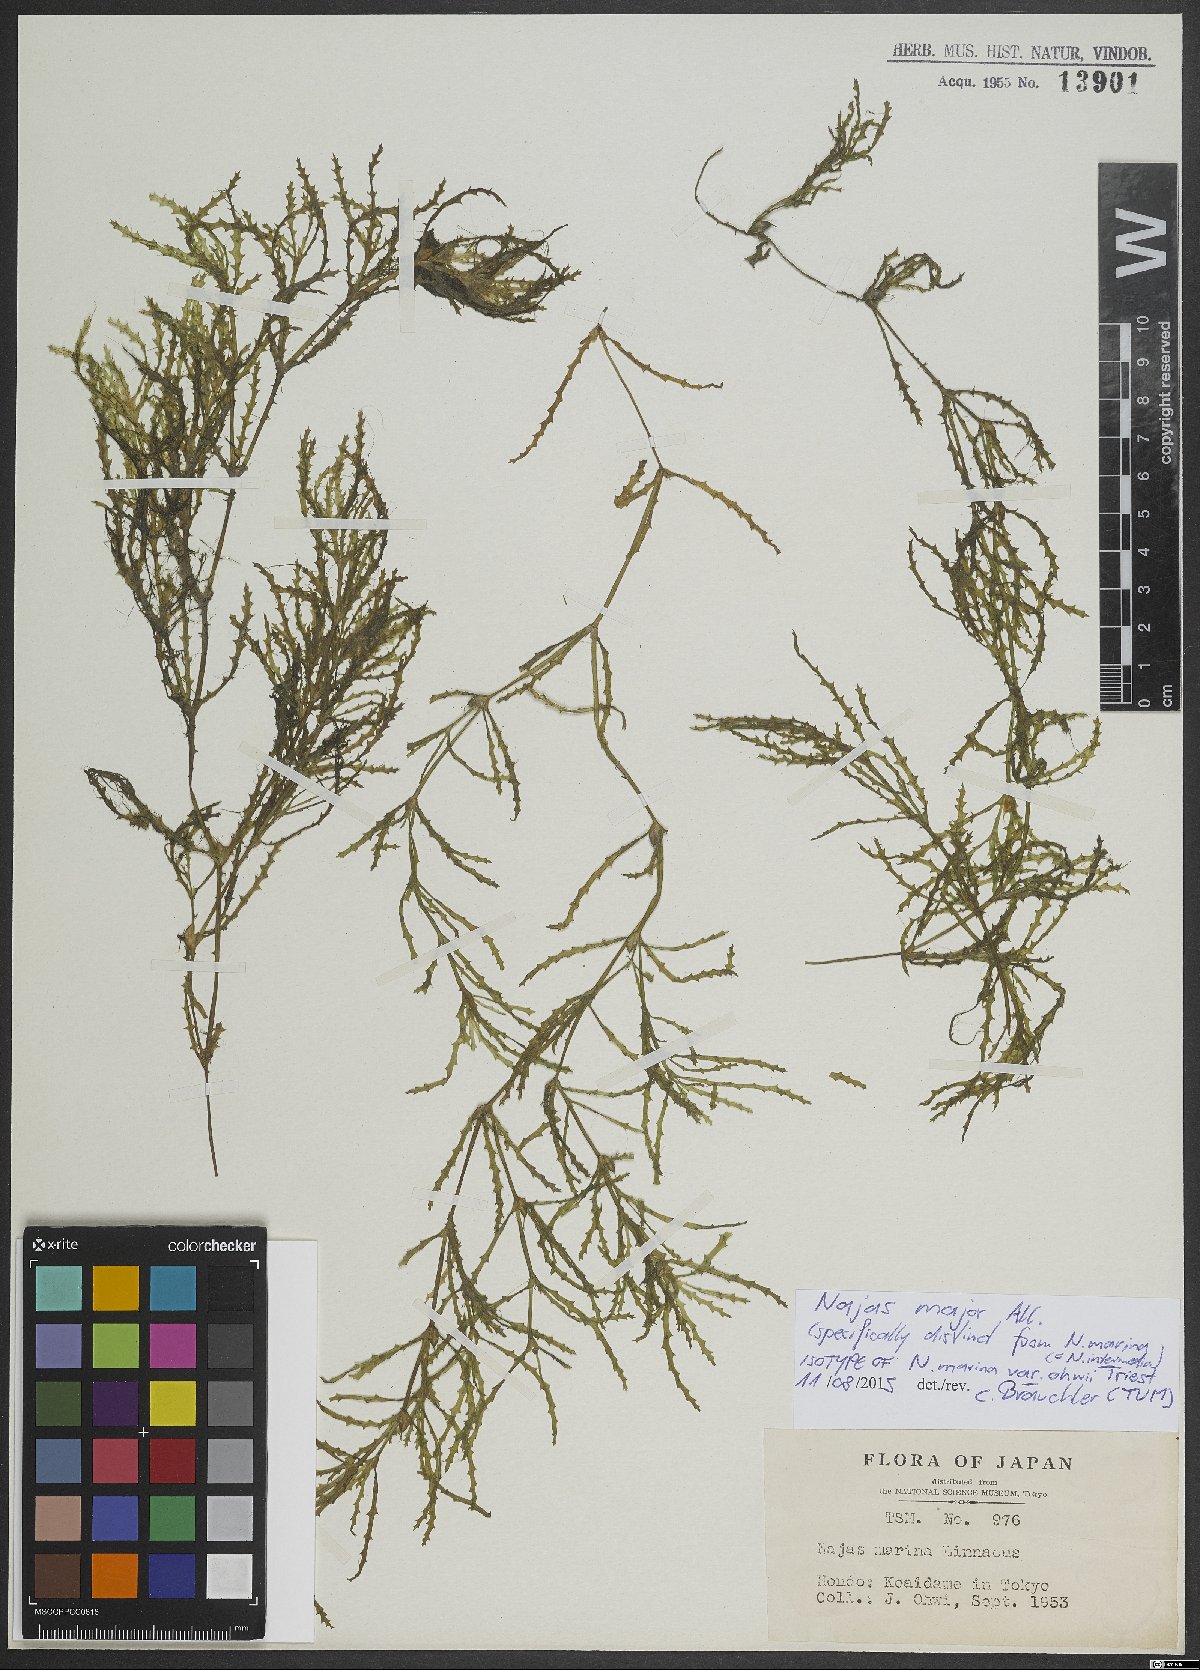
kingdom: Plantae
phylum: Tracheophyta
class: Liliopsida
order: Alismatales
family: Hydrocharitaceae
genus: Najas
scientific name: Najas marina
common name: Holly-leaved naiad
